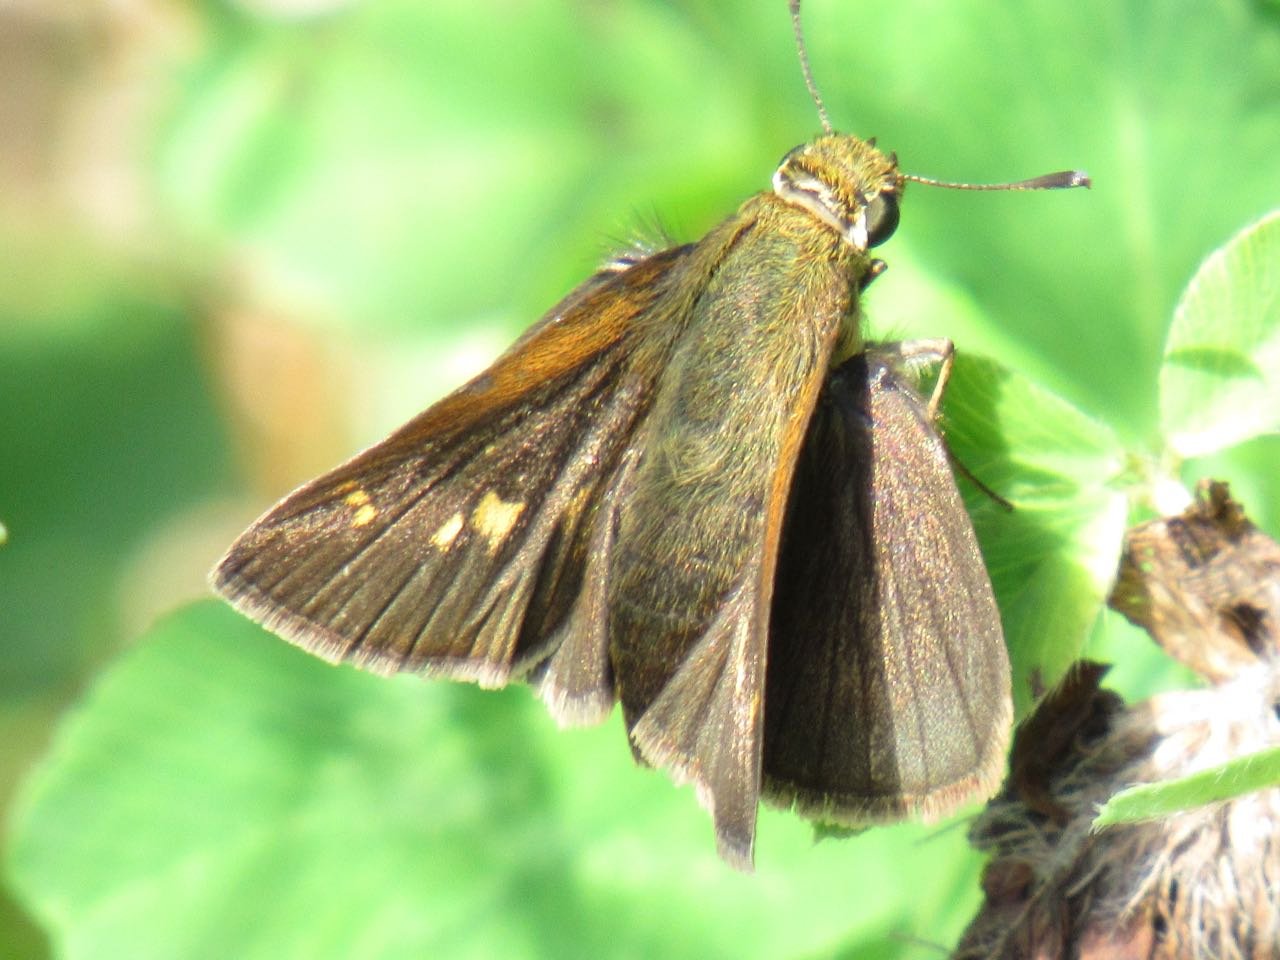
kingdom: Animalia
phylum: Arthropoda
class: Insecta
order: Lepidoptera
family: Hesperiidae
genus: Polites
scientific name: Polites themistocles
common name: Tawny-edged Skipper
